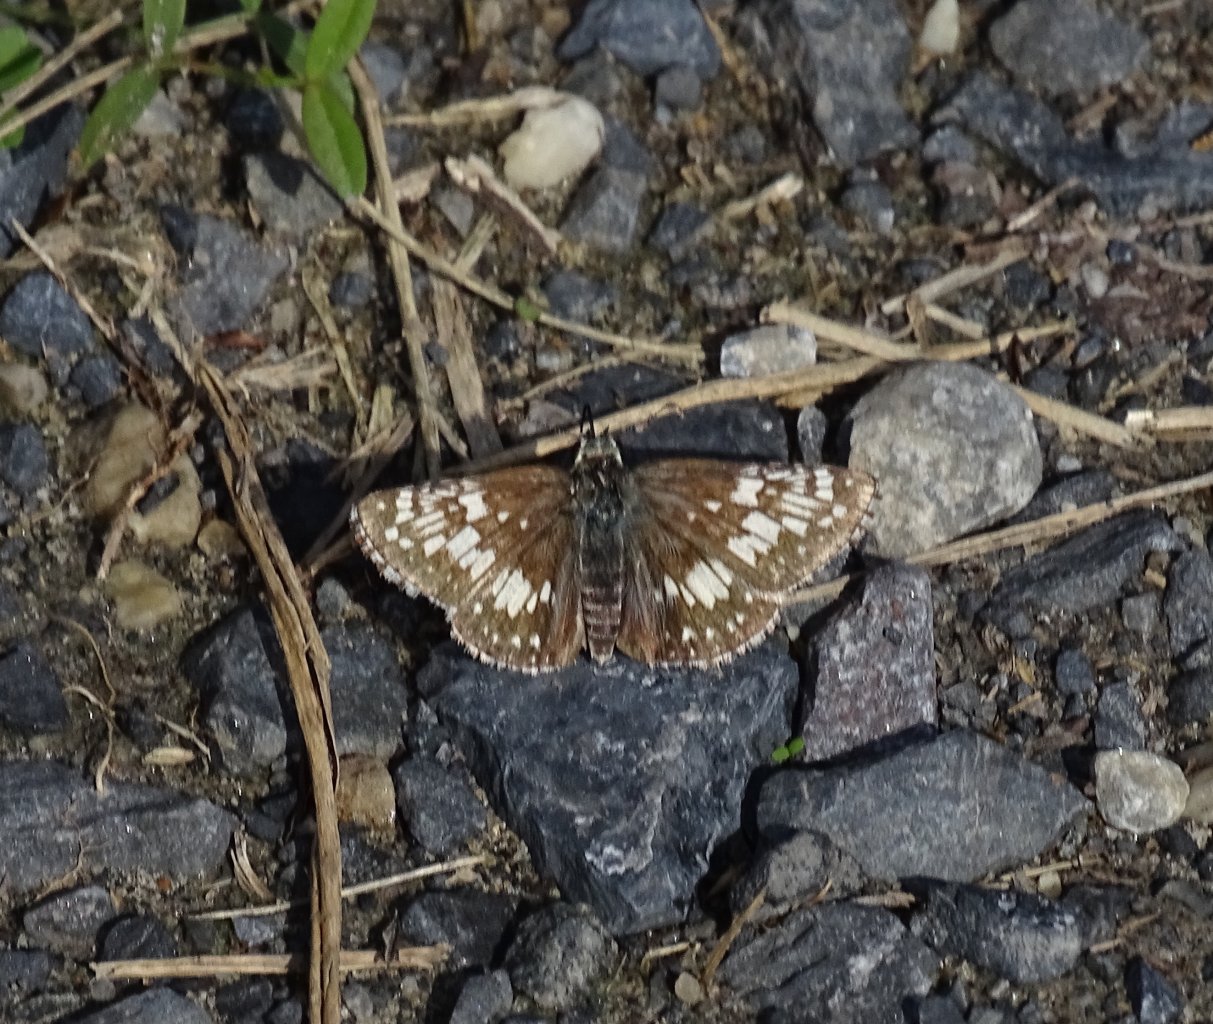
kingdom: Animalia
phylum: Arthropoda
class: Insecta
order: Lepidoptera
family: Hesperiidae
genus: Pyrgus
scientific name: Pyrgus communis
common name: Common Checkered-Skipper
